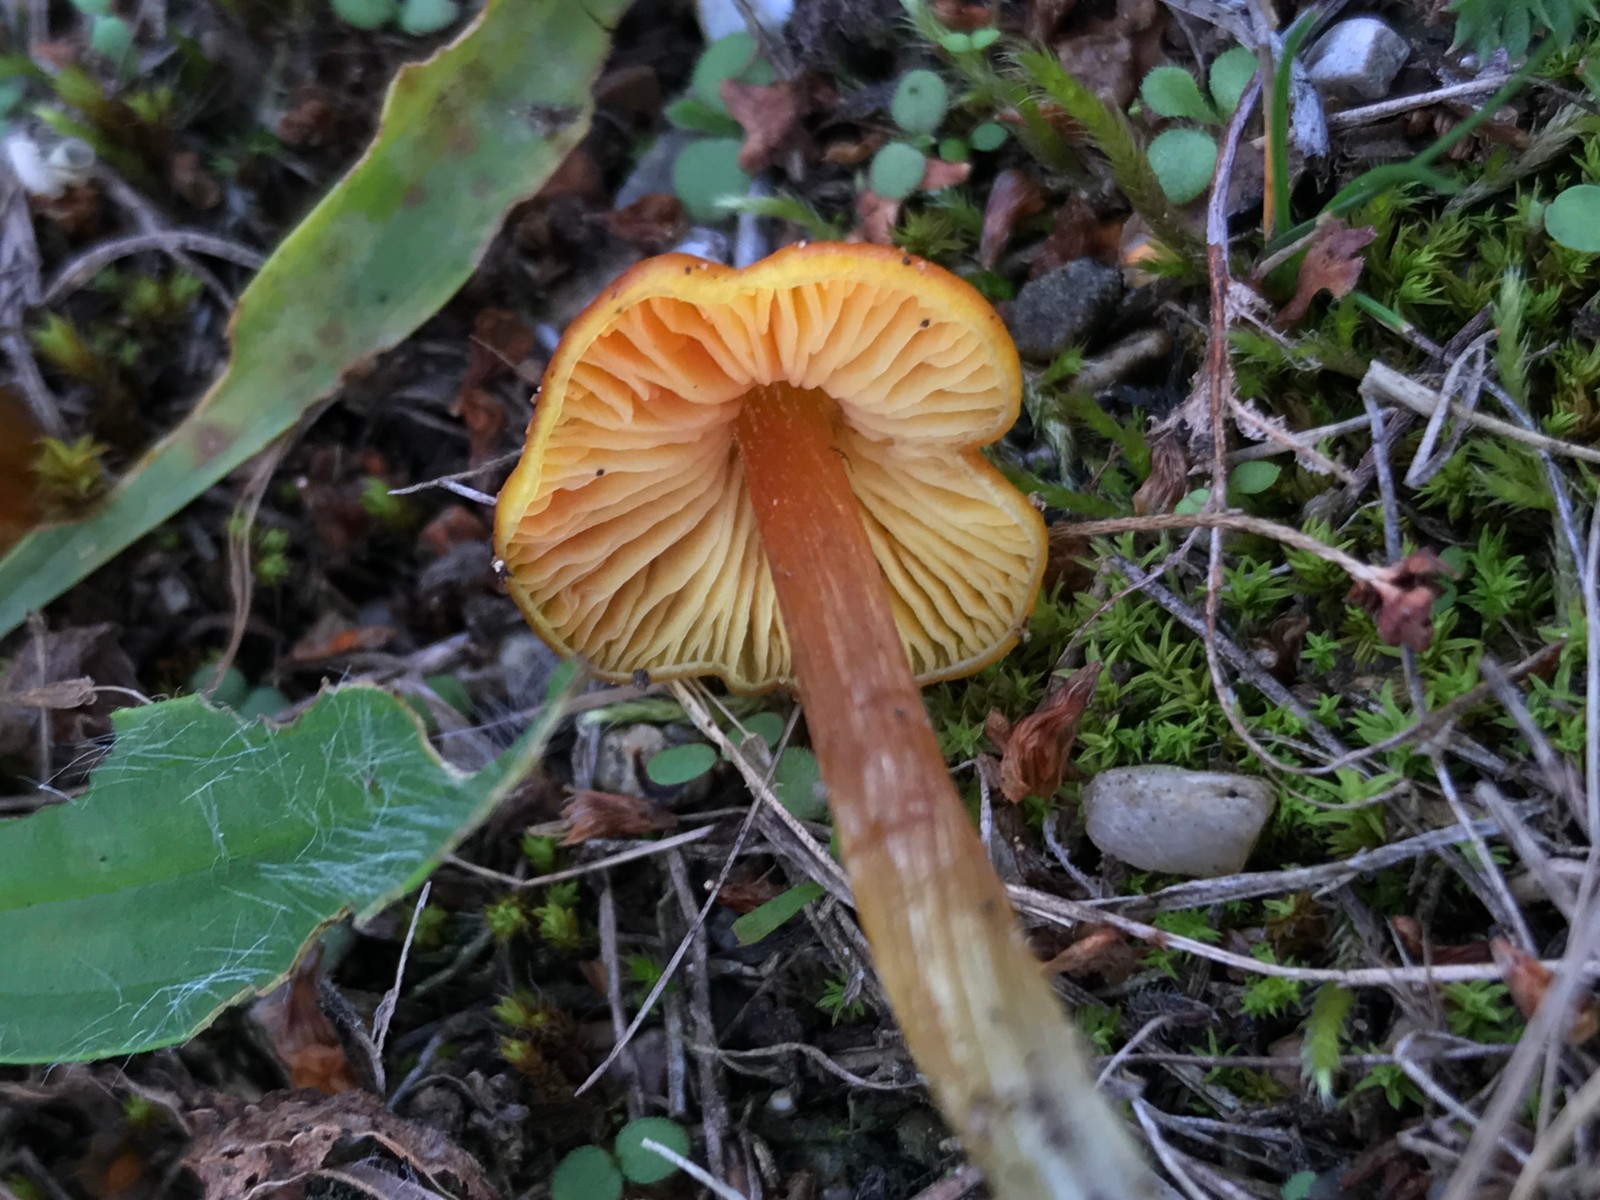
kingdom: Fungi
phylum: Basidiomycota
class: Agaricomycetes
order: Agaricales
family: Hygrophoraceae
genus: Hygrocybe
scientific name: Hygrocybe conica
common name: kegle-vokshat
